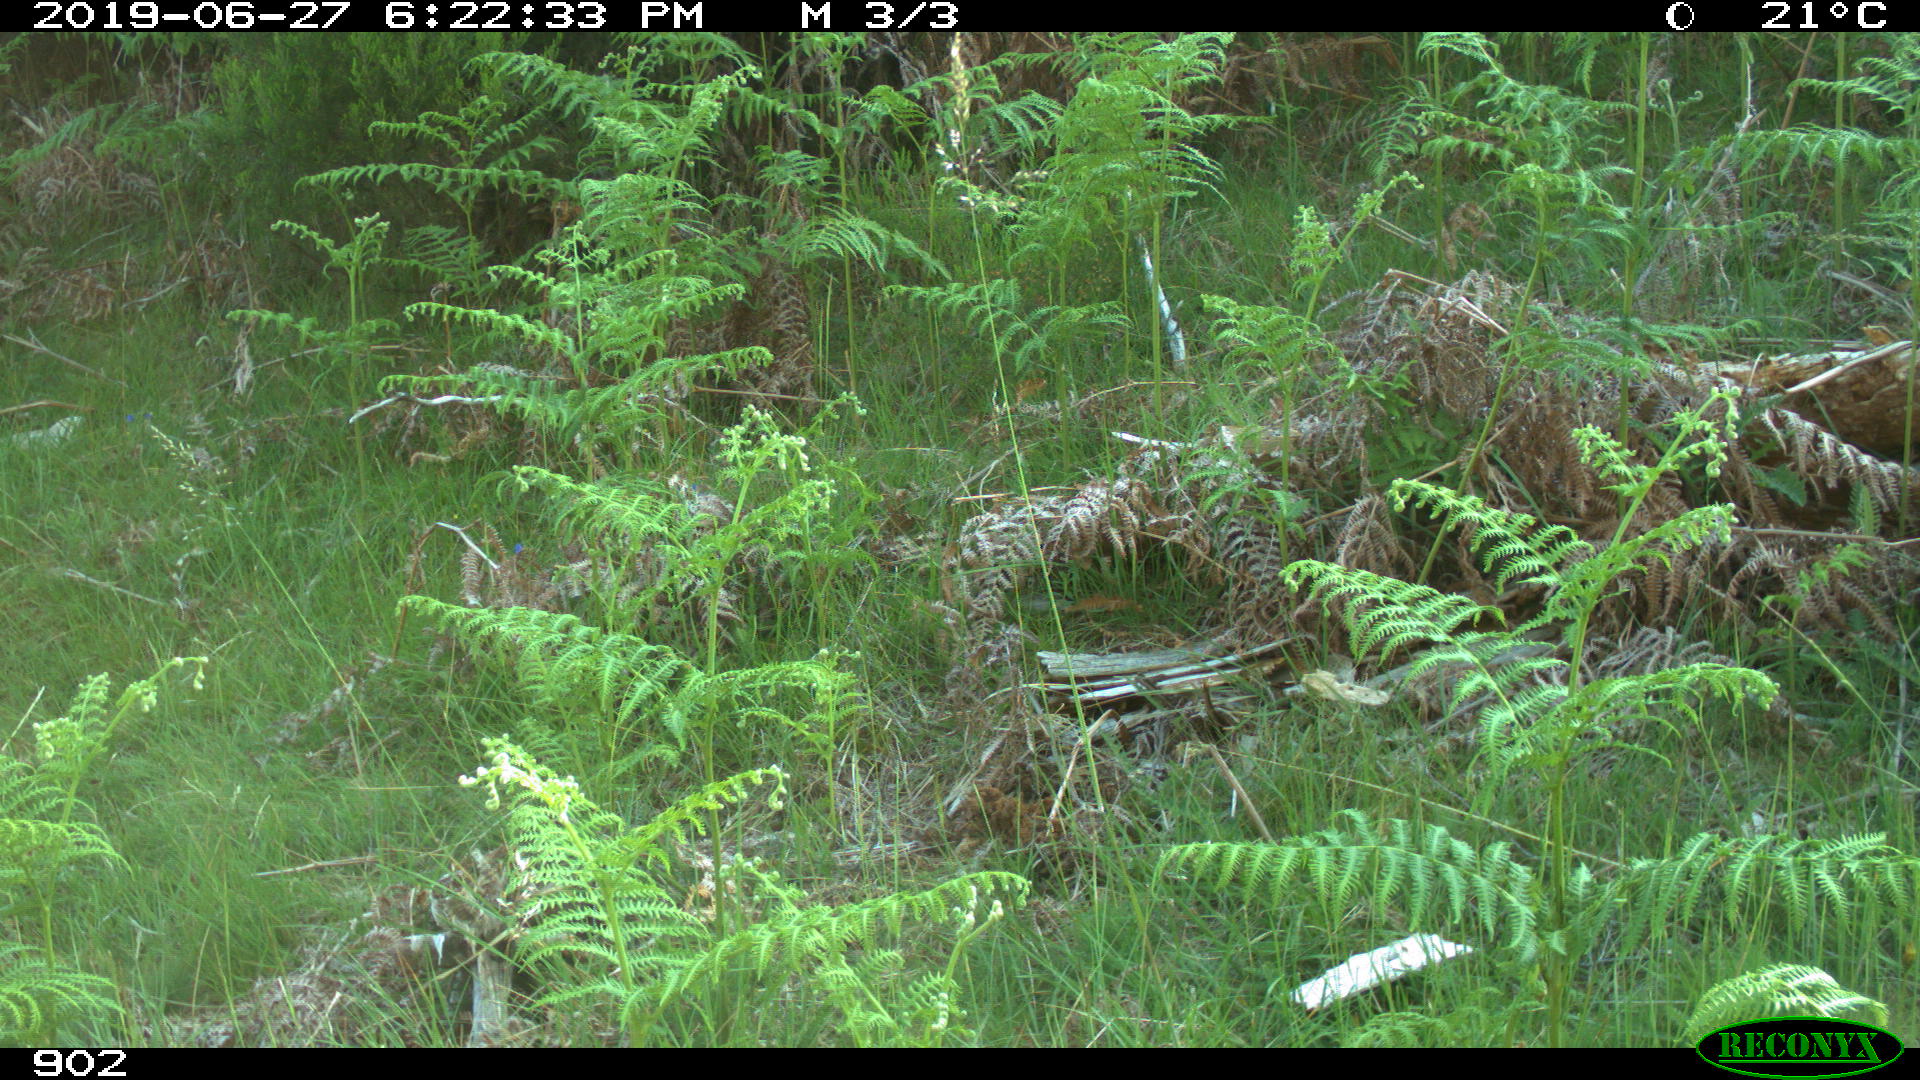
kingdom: Animalia
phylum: Chordata
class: Mammalia
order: Carnivora
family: Canidae
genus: Vulpes
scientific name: Vulpes vulpes
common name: Red fox
